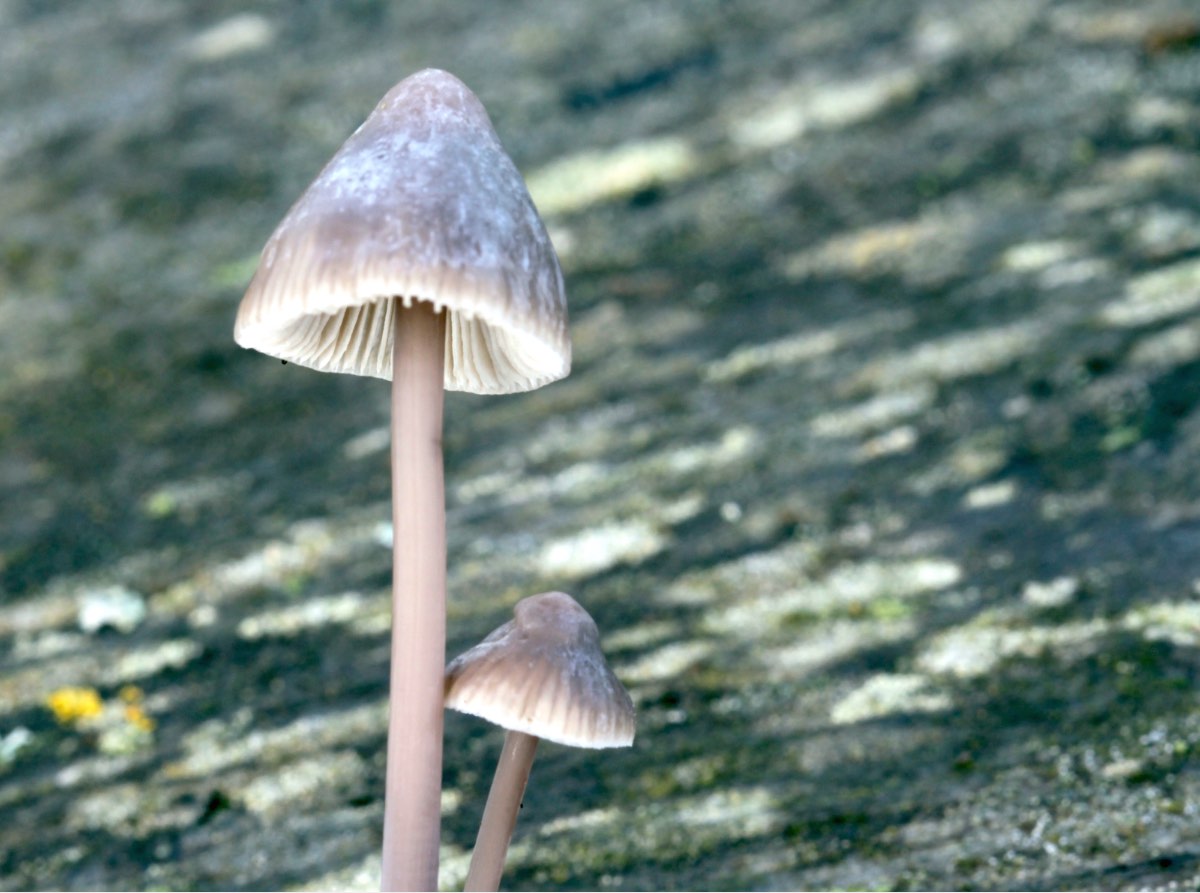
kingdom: Fungi
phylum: Basidiomycota
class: Agaricomycetes
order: Agaricales
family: Mycenaceae
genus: Mycena
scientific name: Mycena
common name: huesvamp
